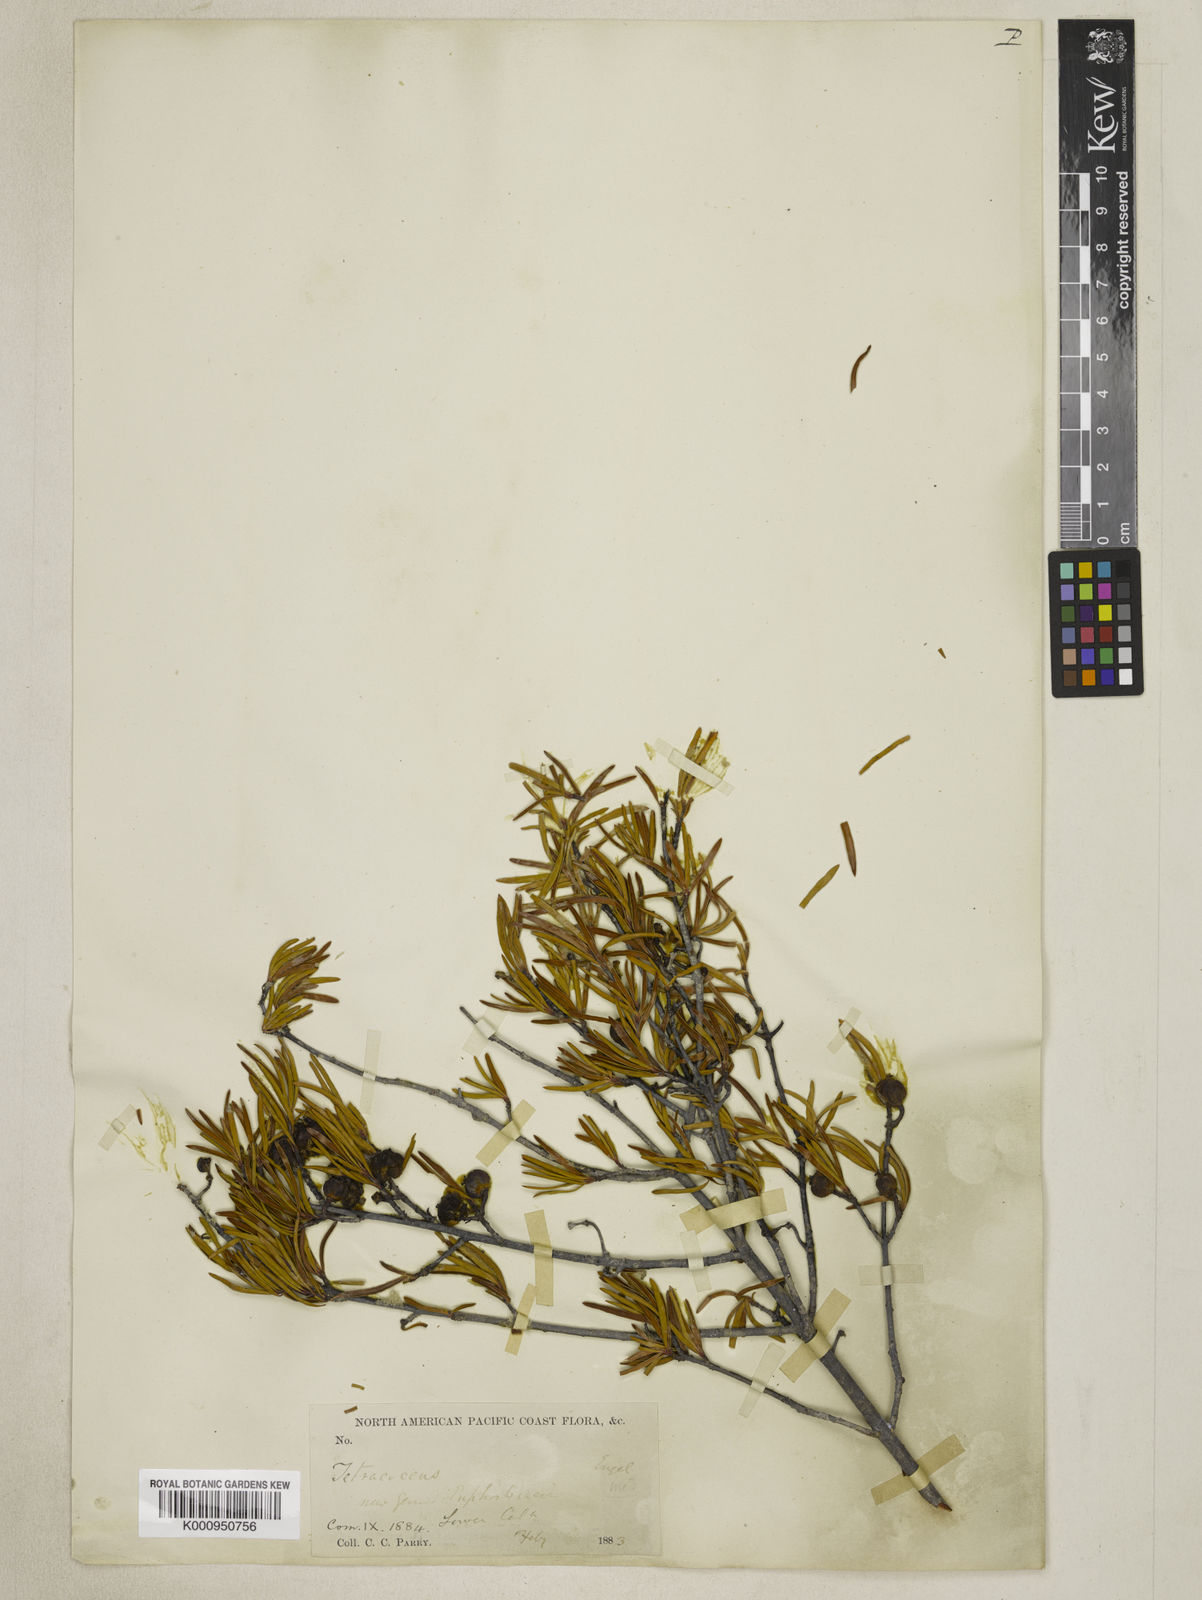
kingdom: Plantae
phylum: Tracheophyta
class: Magnoliopsida
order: Malpighiales
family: Picrodendraceae
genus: Tetracoccus
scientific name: Tetracoccus dioicus
